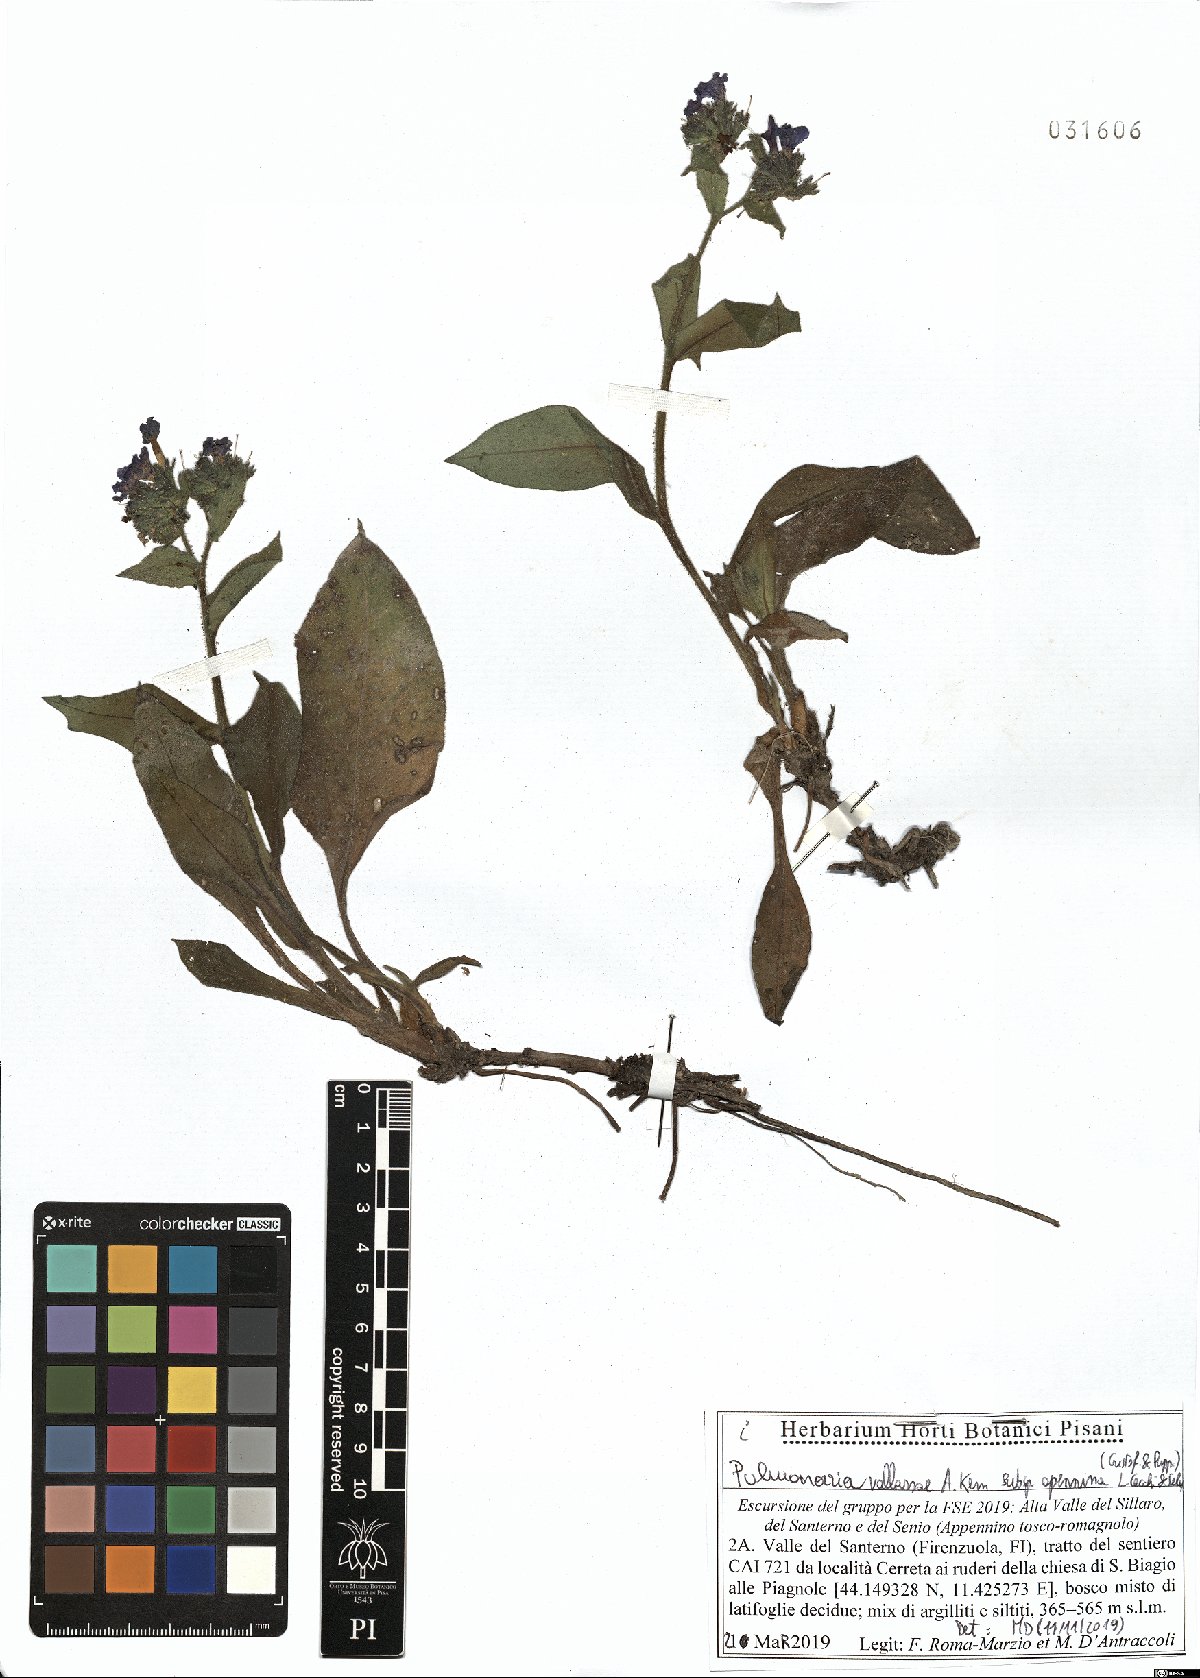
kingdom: Plantae
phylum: Tracheophyta
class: Magnoliopsida
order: Boraginales
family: Boraginaceae
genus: Pulmonaria
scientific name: Pulmonaria hirta
